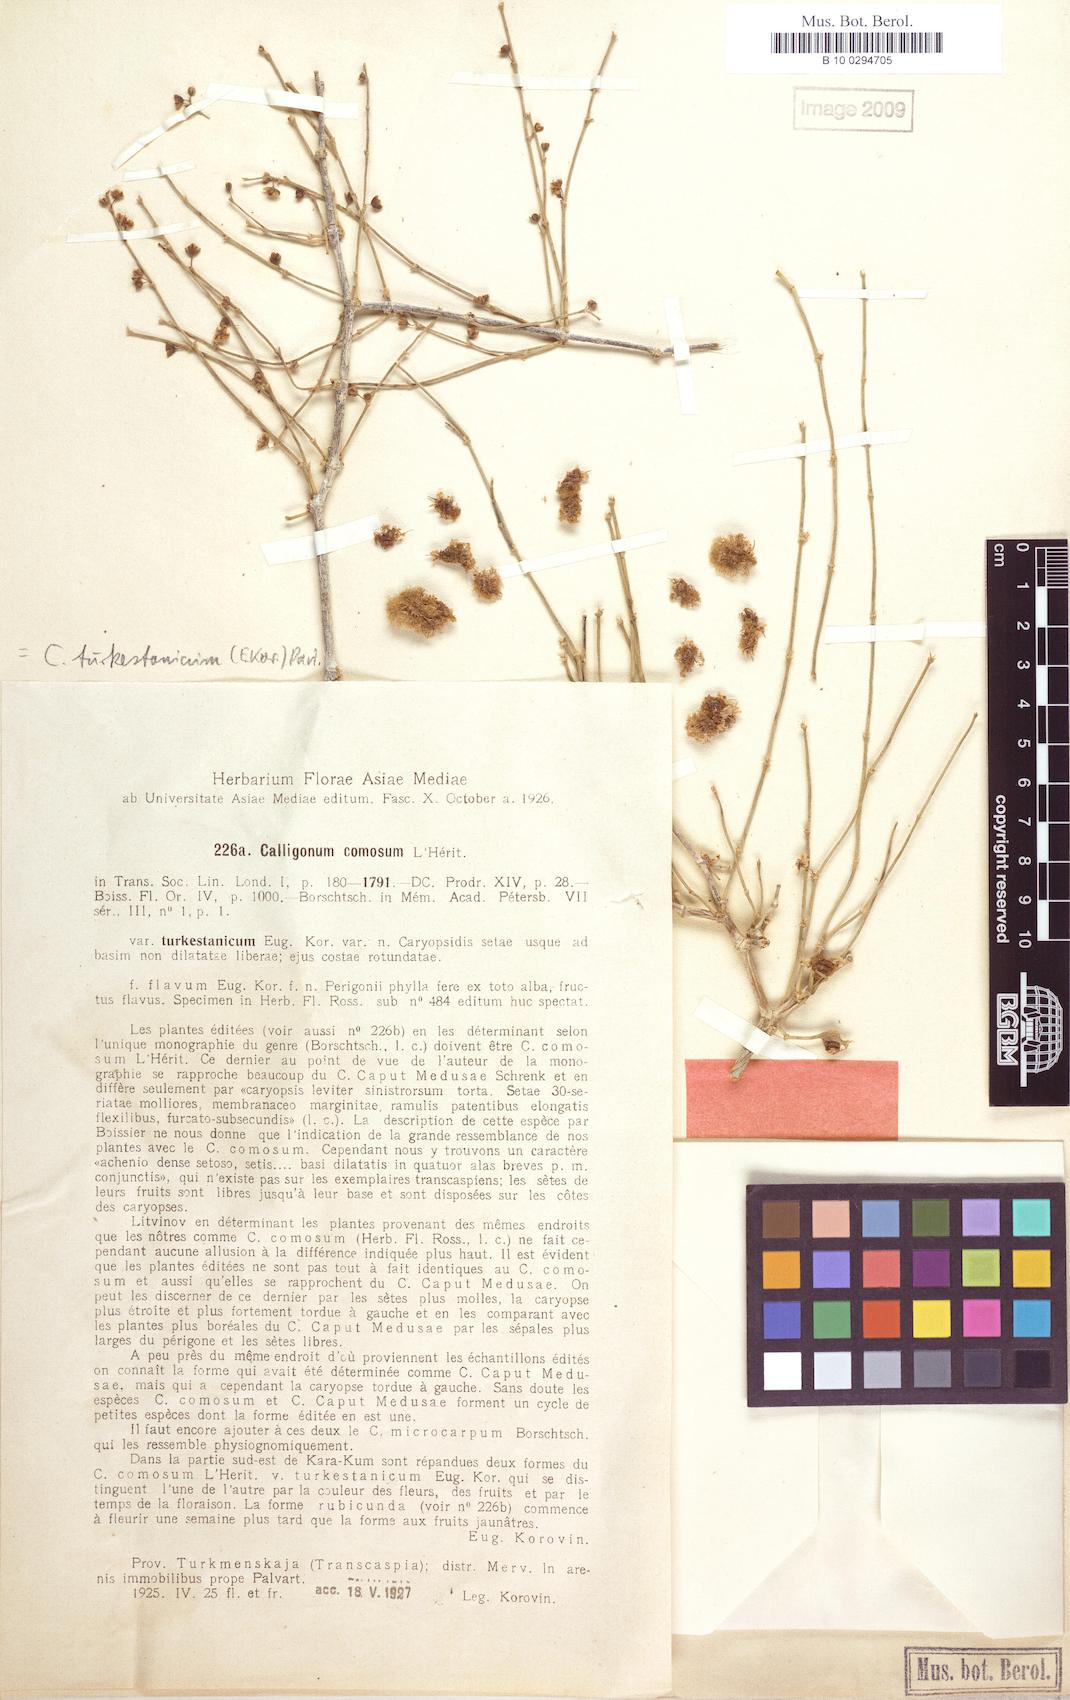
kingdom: Plantae
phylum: Tracheophyta
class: Magnoliopsida
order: Caryophyllales
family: Polygonaceae
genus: Calligonum
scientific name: Calligonum mongolicum
